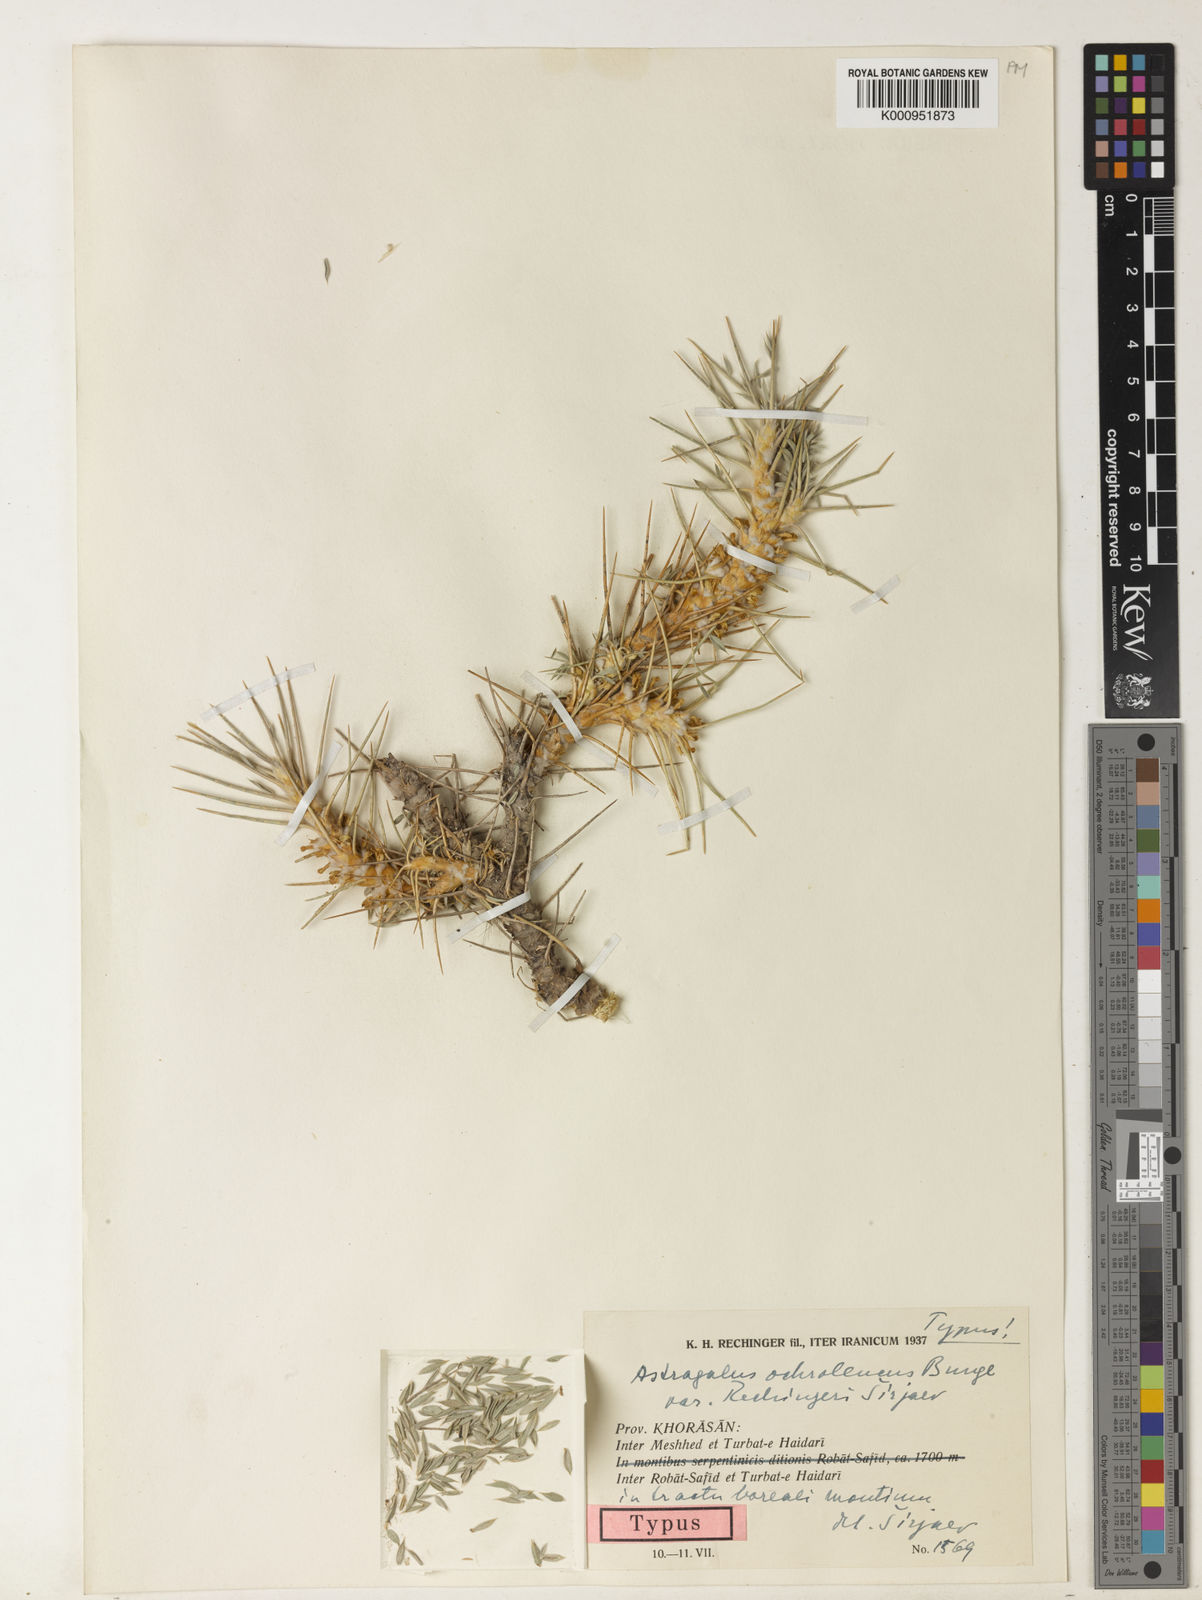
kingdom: Plantae
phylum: Tracheophyta
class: Magnoliopsida
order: Fabales
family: Fabaceae
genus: Astragalus
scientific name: Astragalus verus
